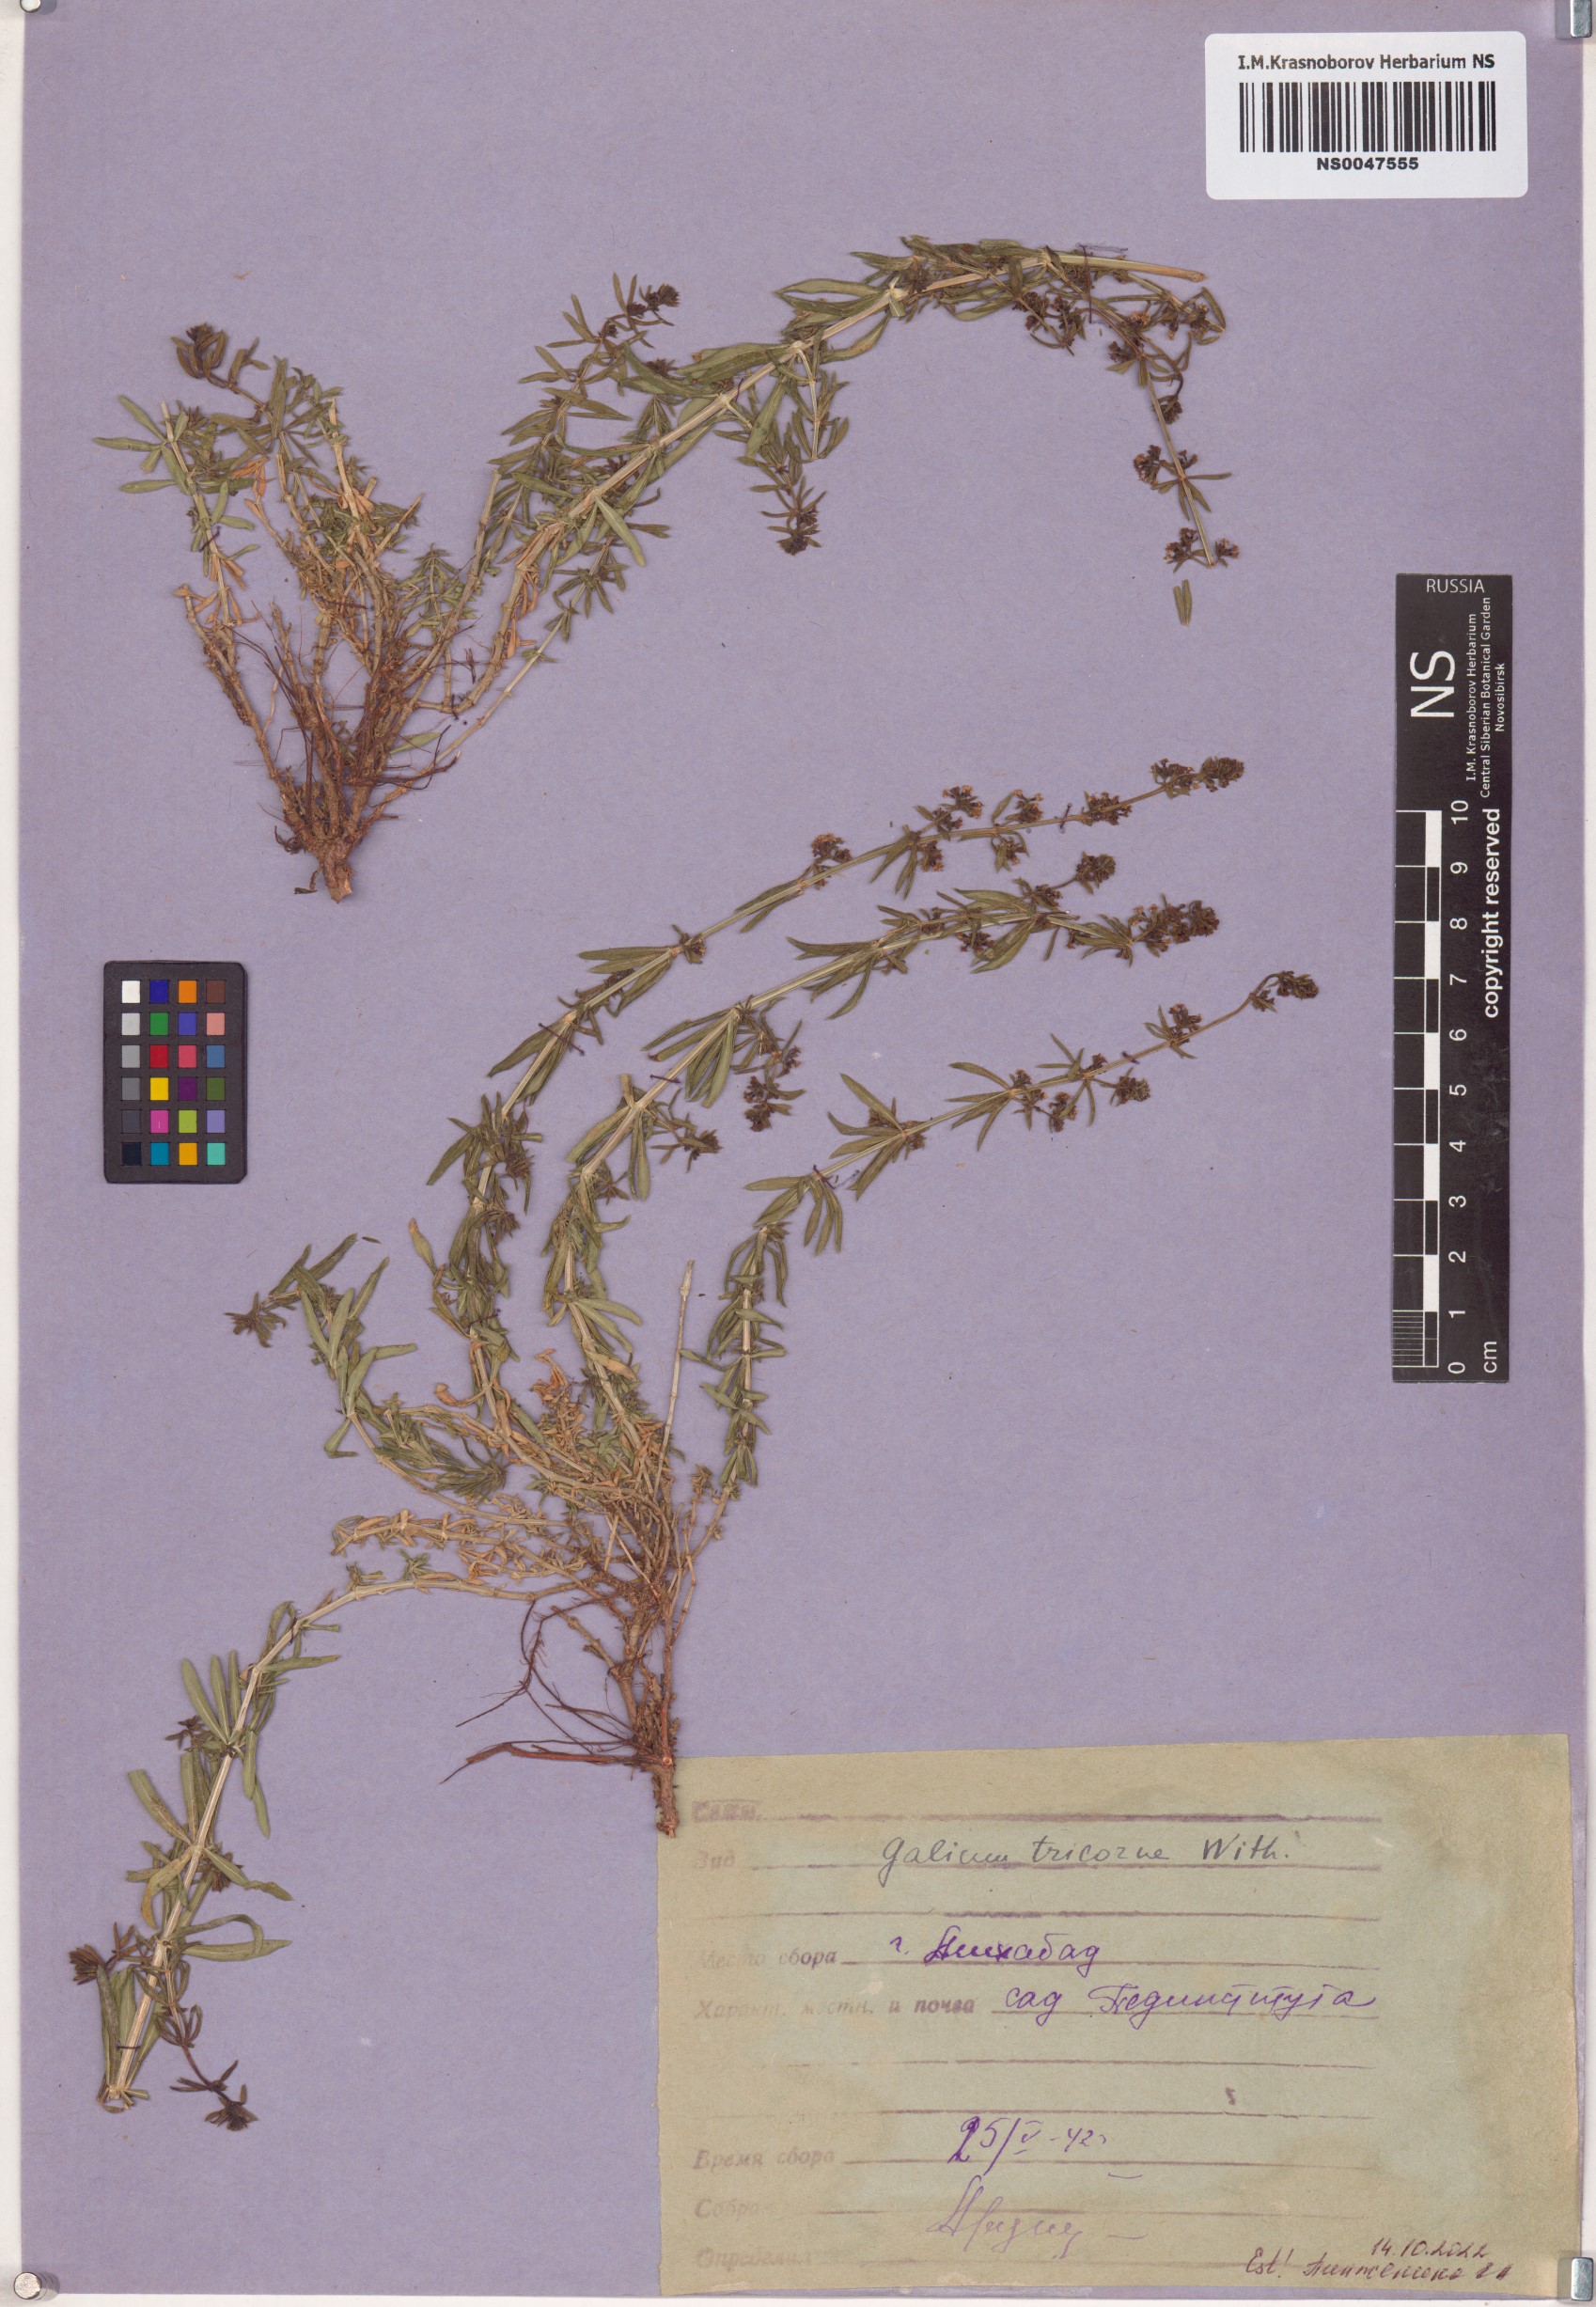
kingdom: Plantae
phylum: Tracheophyta
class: Magnoliopsida
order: Gentianales
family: Rubiaceae
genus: Galium
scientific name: Galium verrucosum
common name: Warty bedstraw
